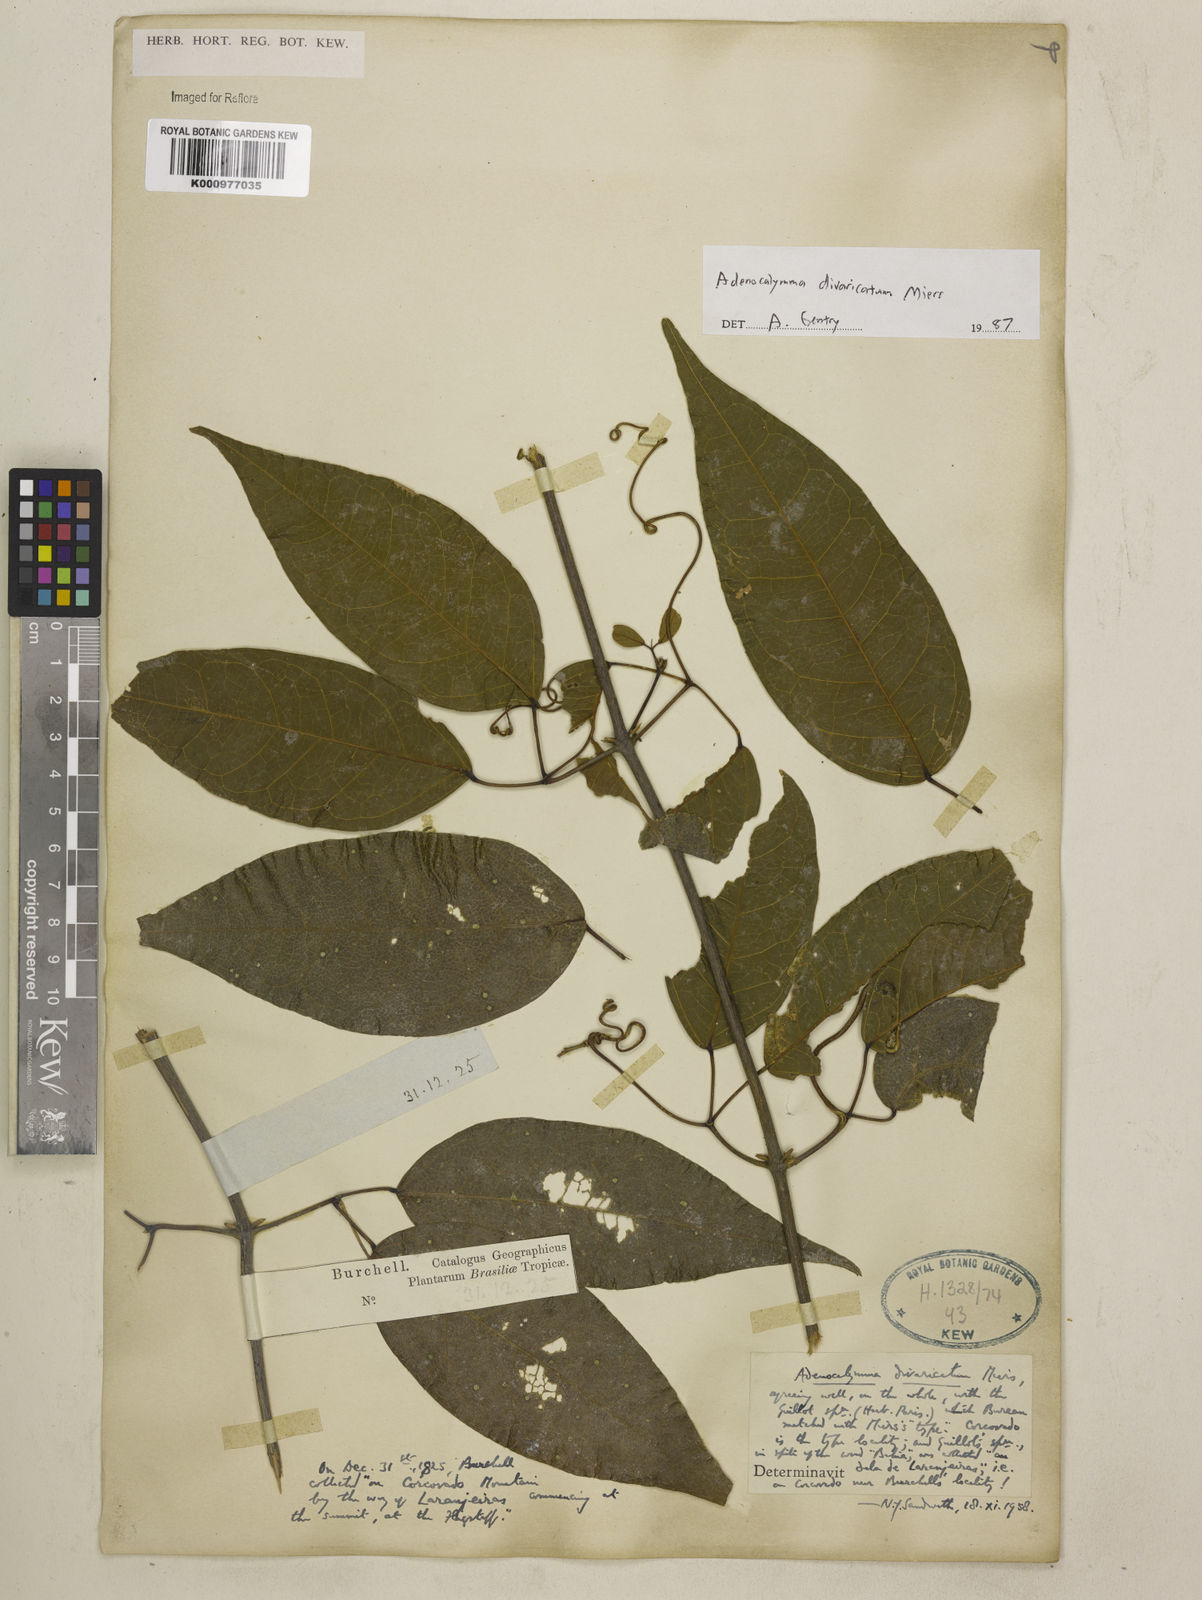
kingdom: Plantae
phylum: Tracheophyta
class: Magnoliopsida
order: Lamiales
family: Bignoniaceae
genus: Adenocalymma
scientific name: Adenocalymma divaricatum
